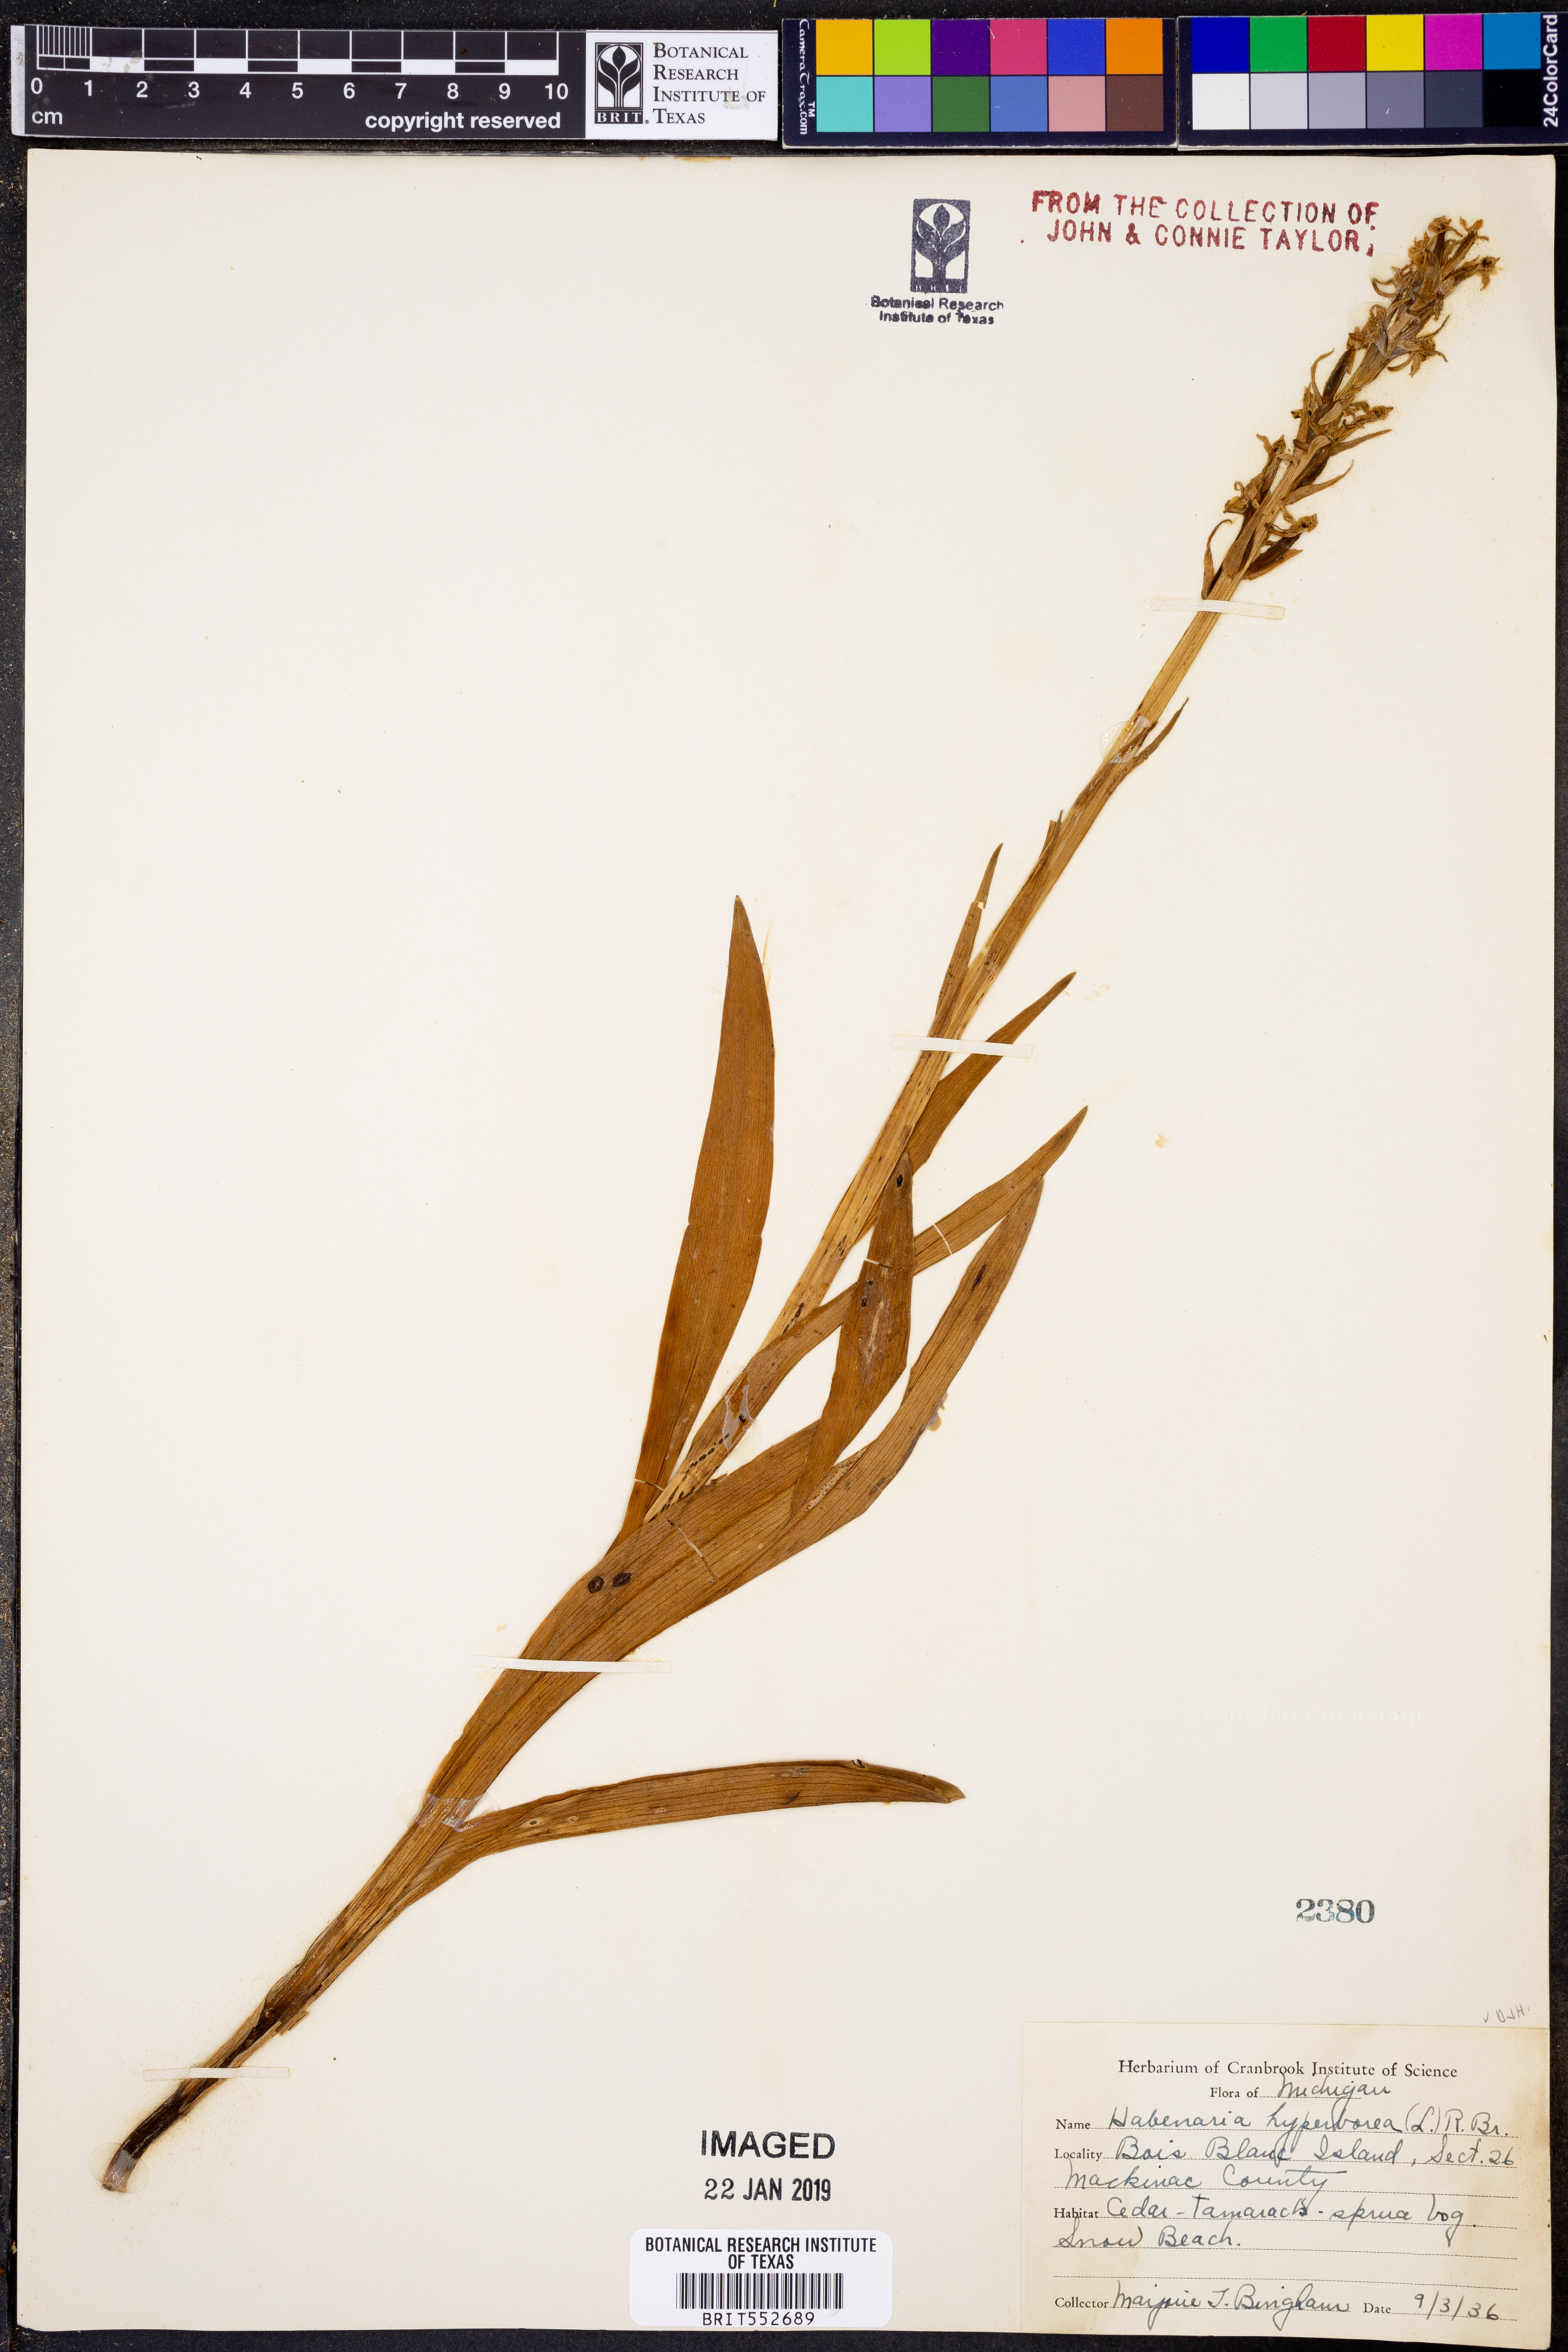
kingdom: Plantae
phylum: Tracheophyta
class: Liliopsida
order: Asparagales
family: Orchidaceae
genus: Platanthera
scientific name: Platanthera hyperborea
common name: Northern green orchid
